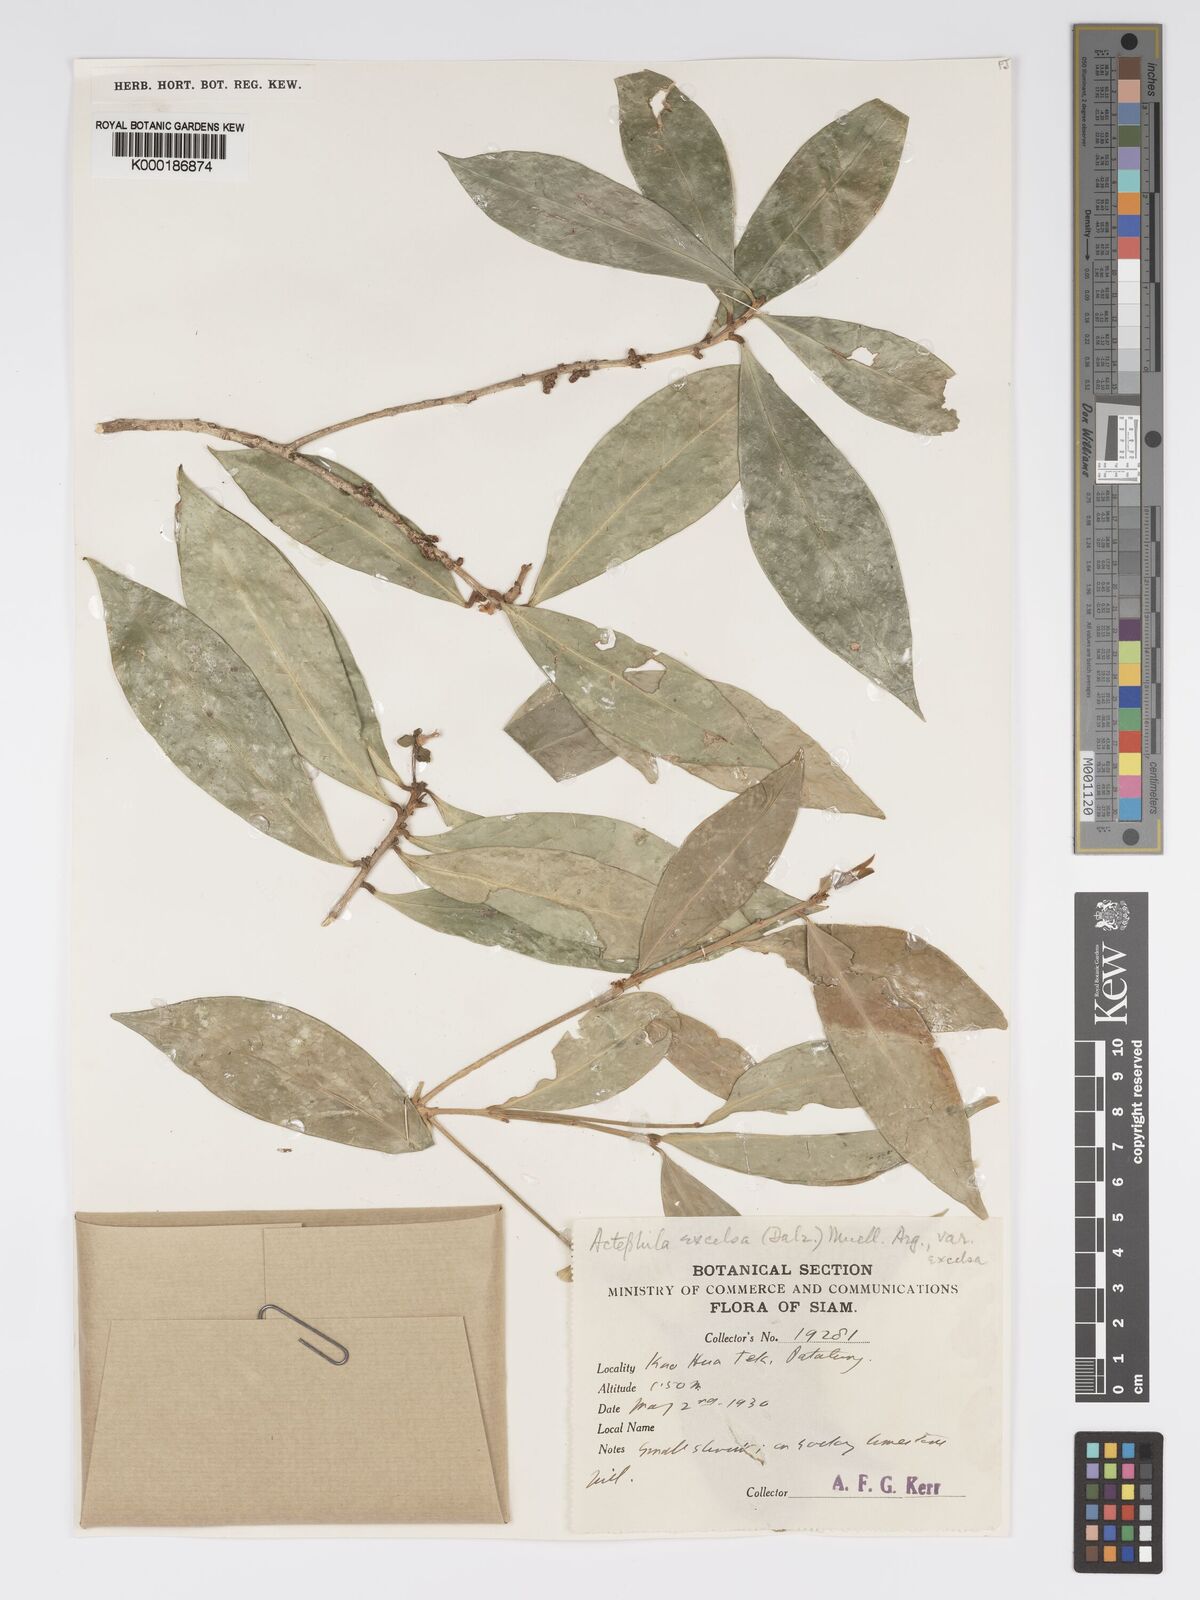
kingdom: Plantae
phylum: Tracheophyta
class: Magnoliopsida
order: Malpighiales
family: Phyllanthaceae
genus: Actephila
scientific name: Actephila
